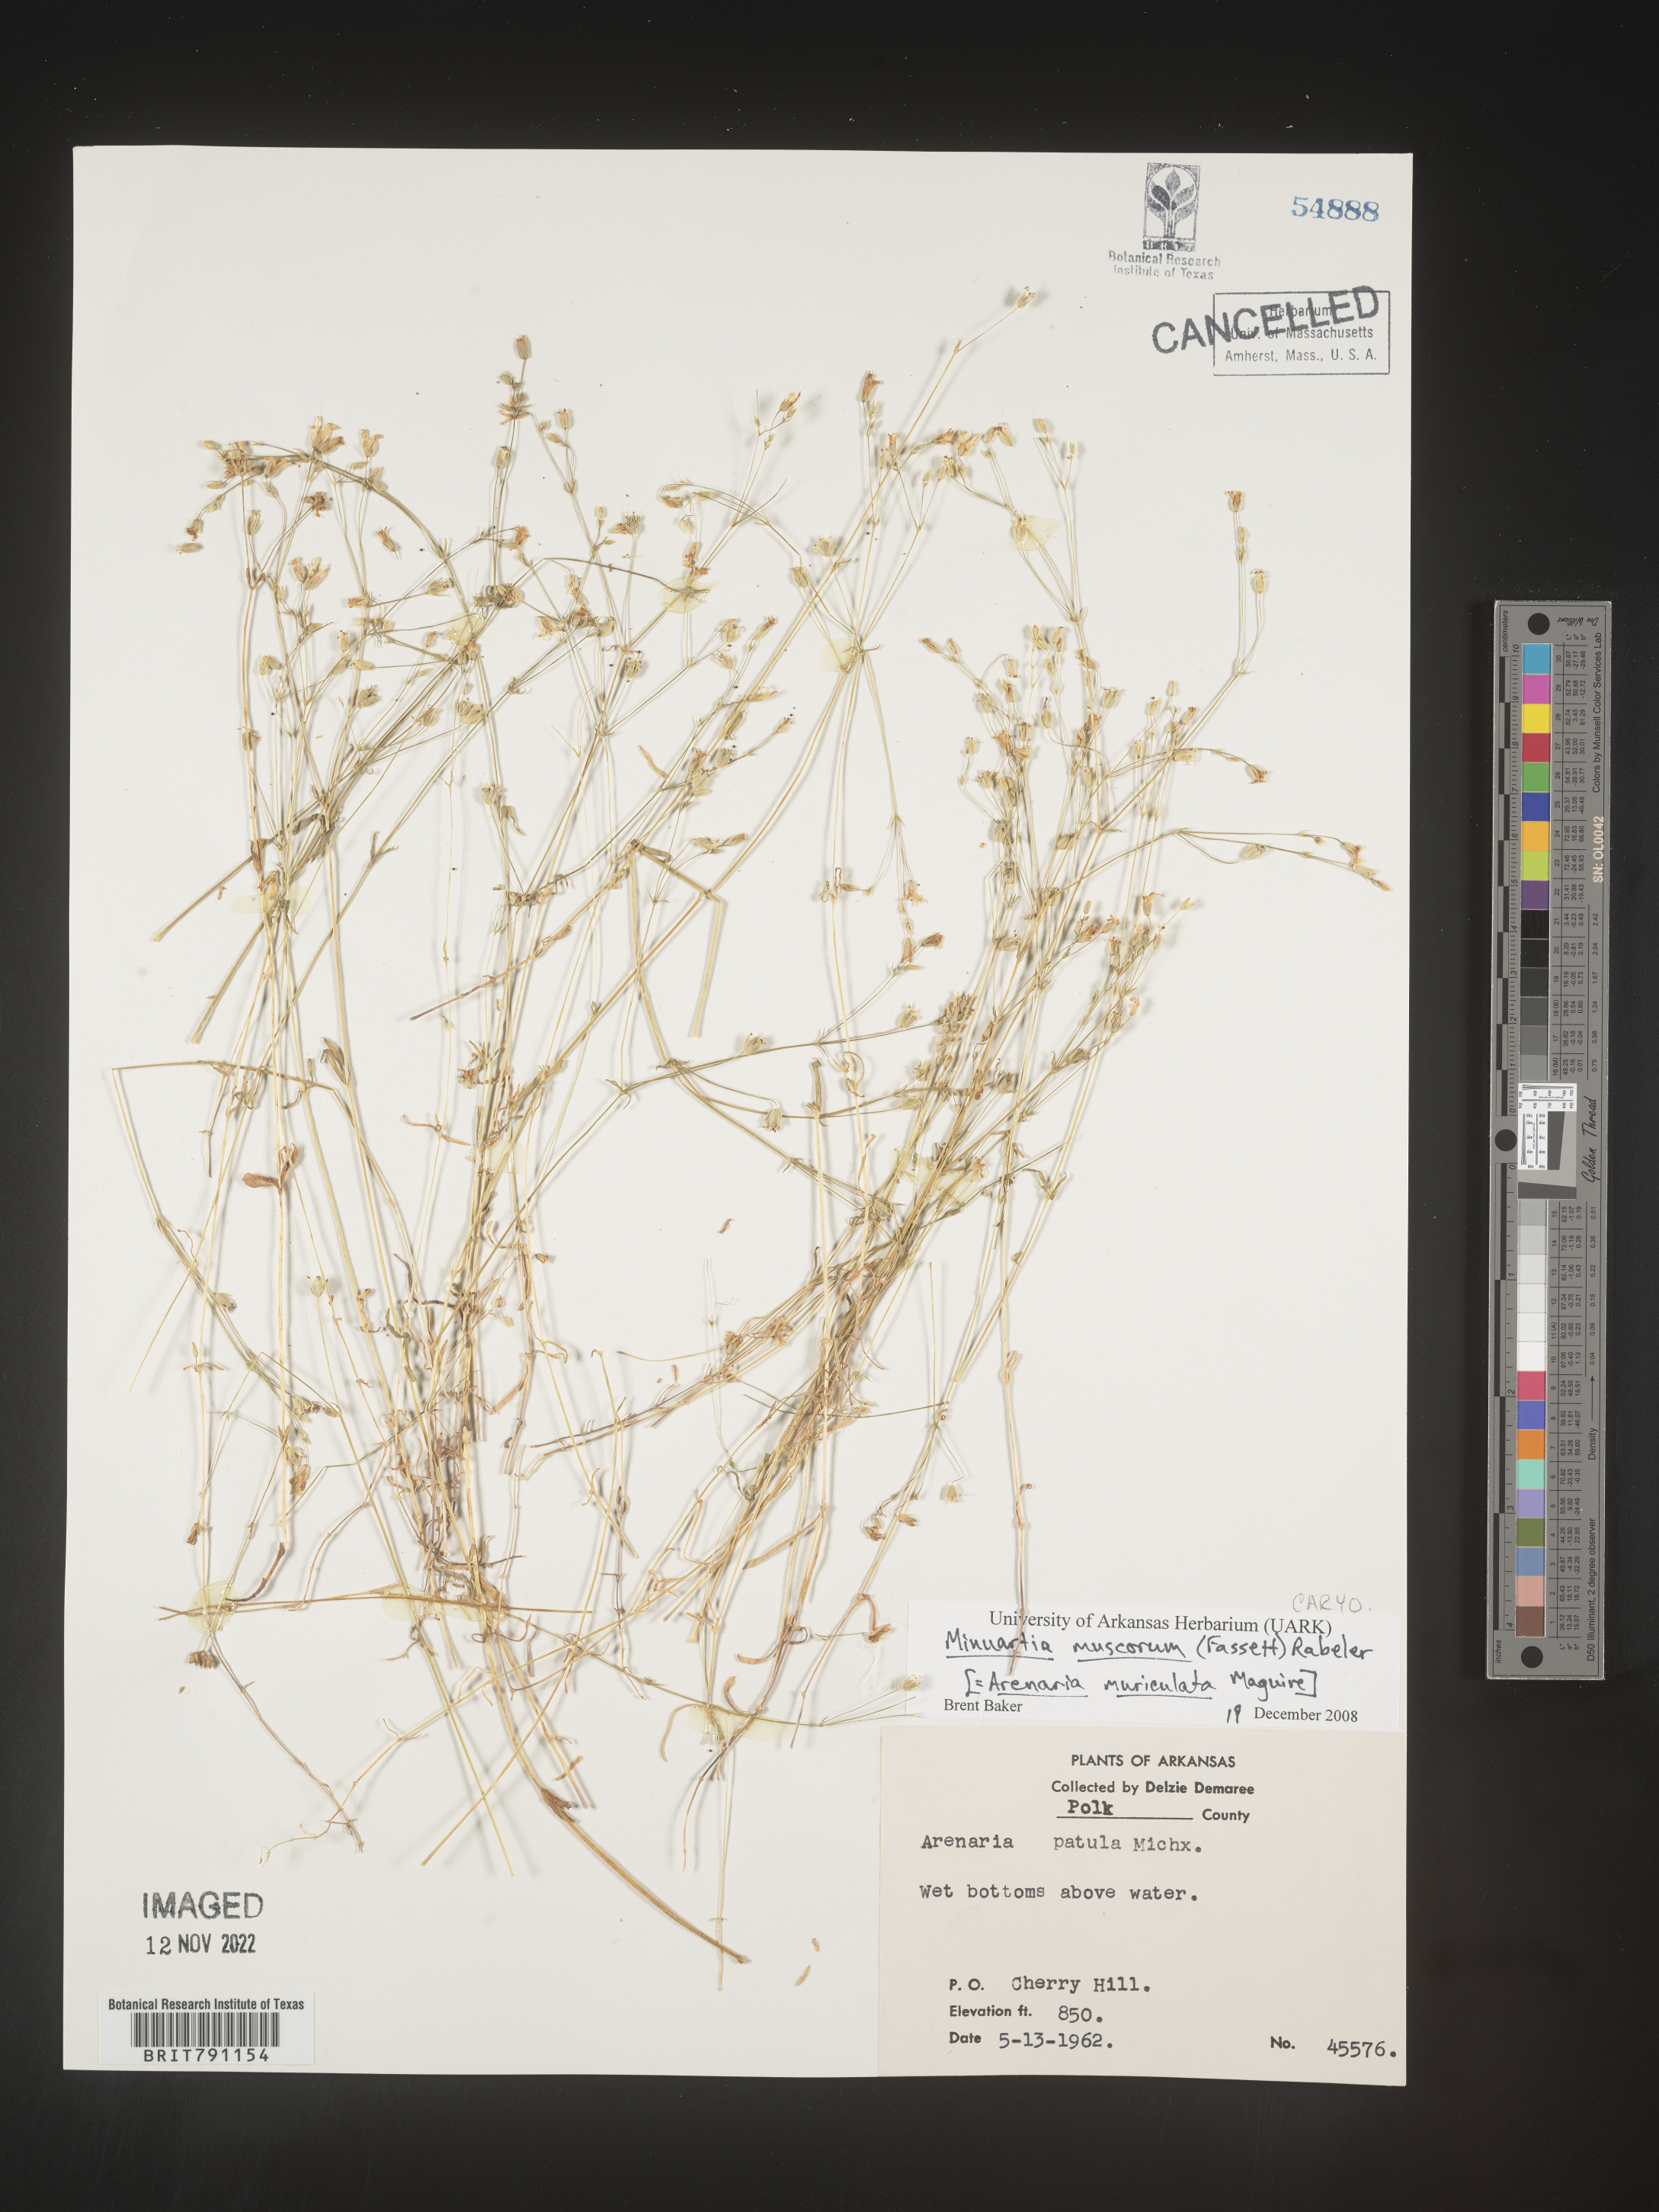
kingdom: Plantae
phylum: Tracheophyta
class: Magnoliopsida
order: Caryophyllales
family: Caryophyllaceae
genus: Mononeuria
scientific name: Mononeuria muscorum
